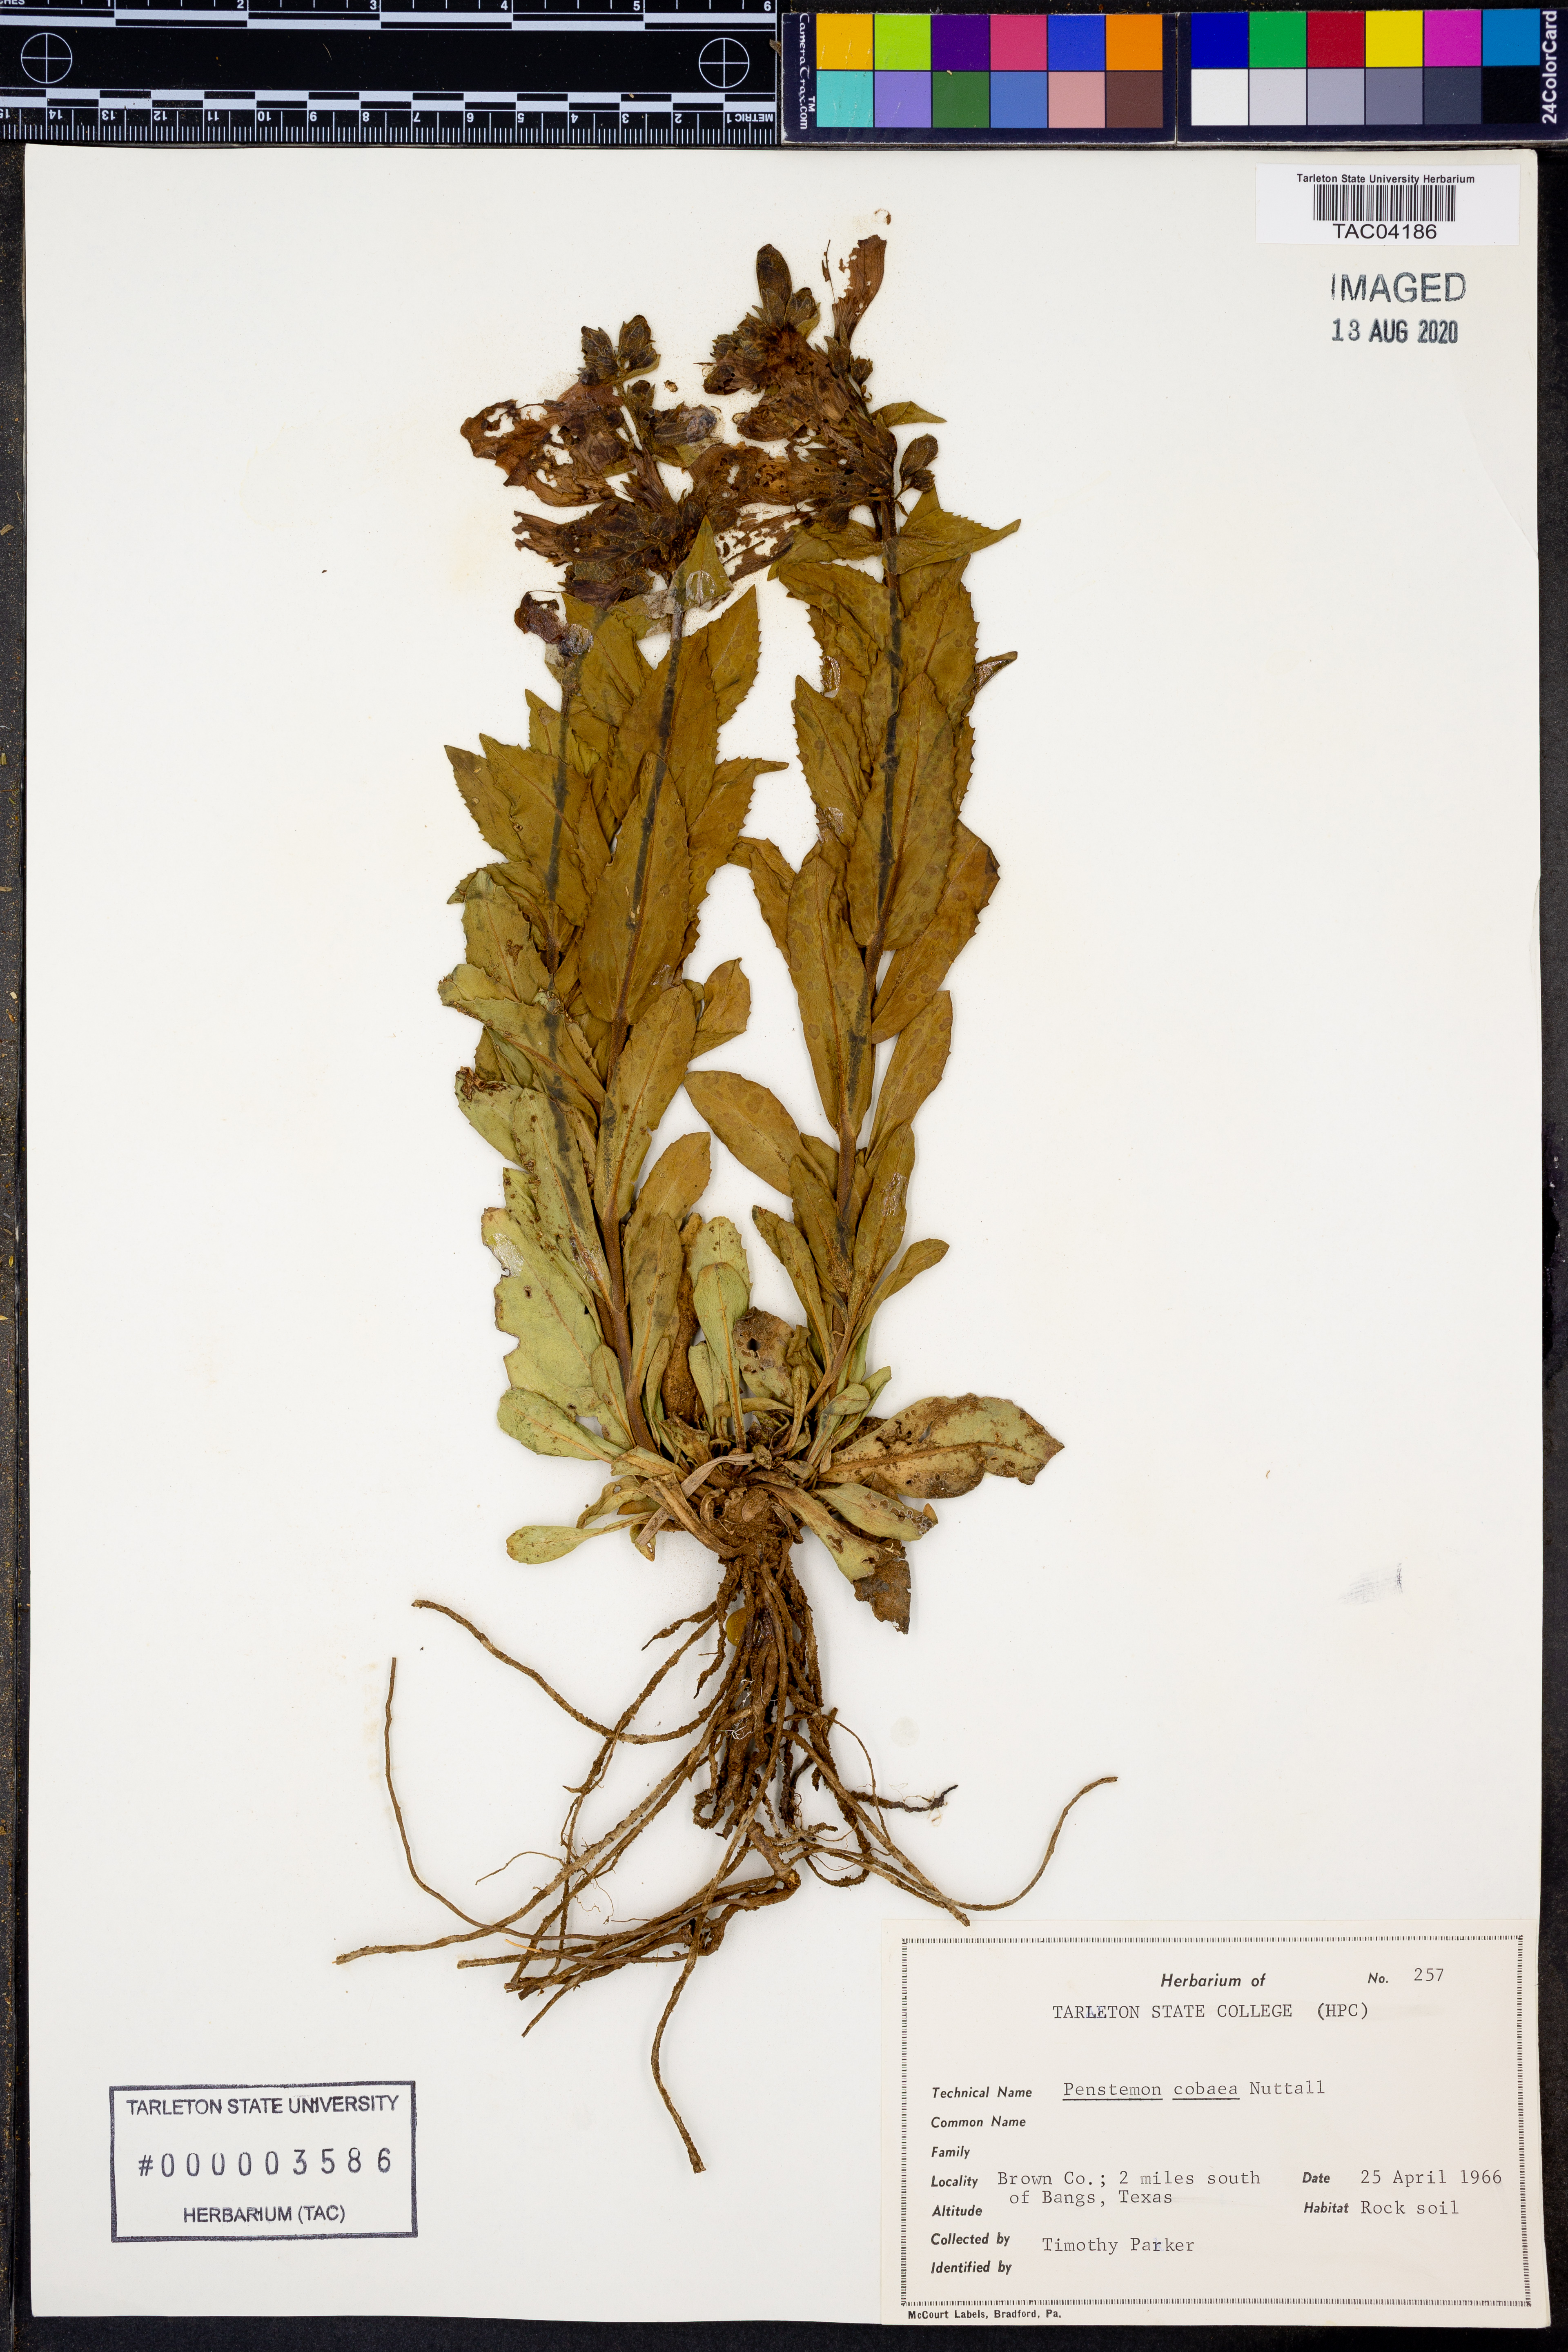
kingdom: Plantae
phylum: Tracheophyta
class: Magnoliopsida
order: Lamiales
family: Plantaginaceae
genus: Penstemon
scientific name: Penstemon cobaea
